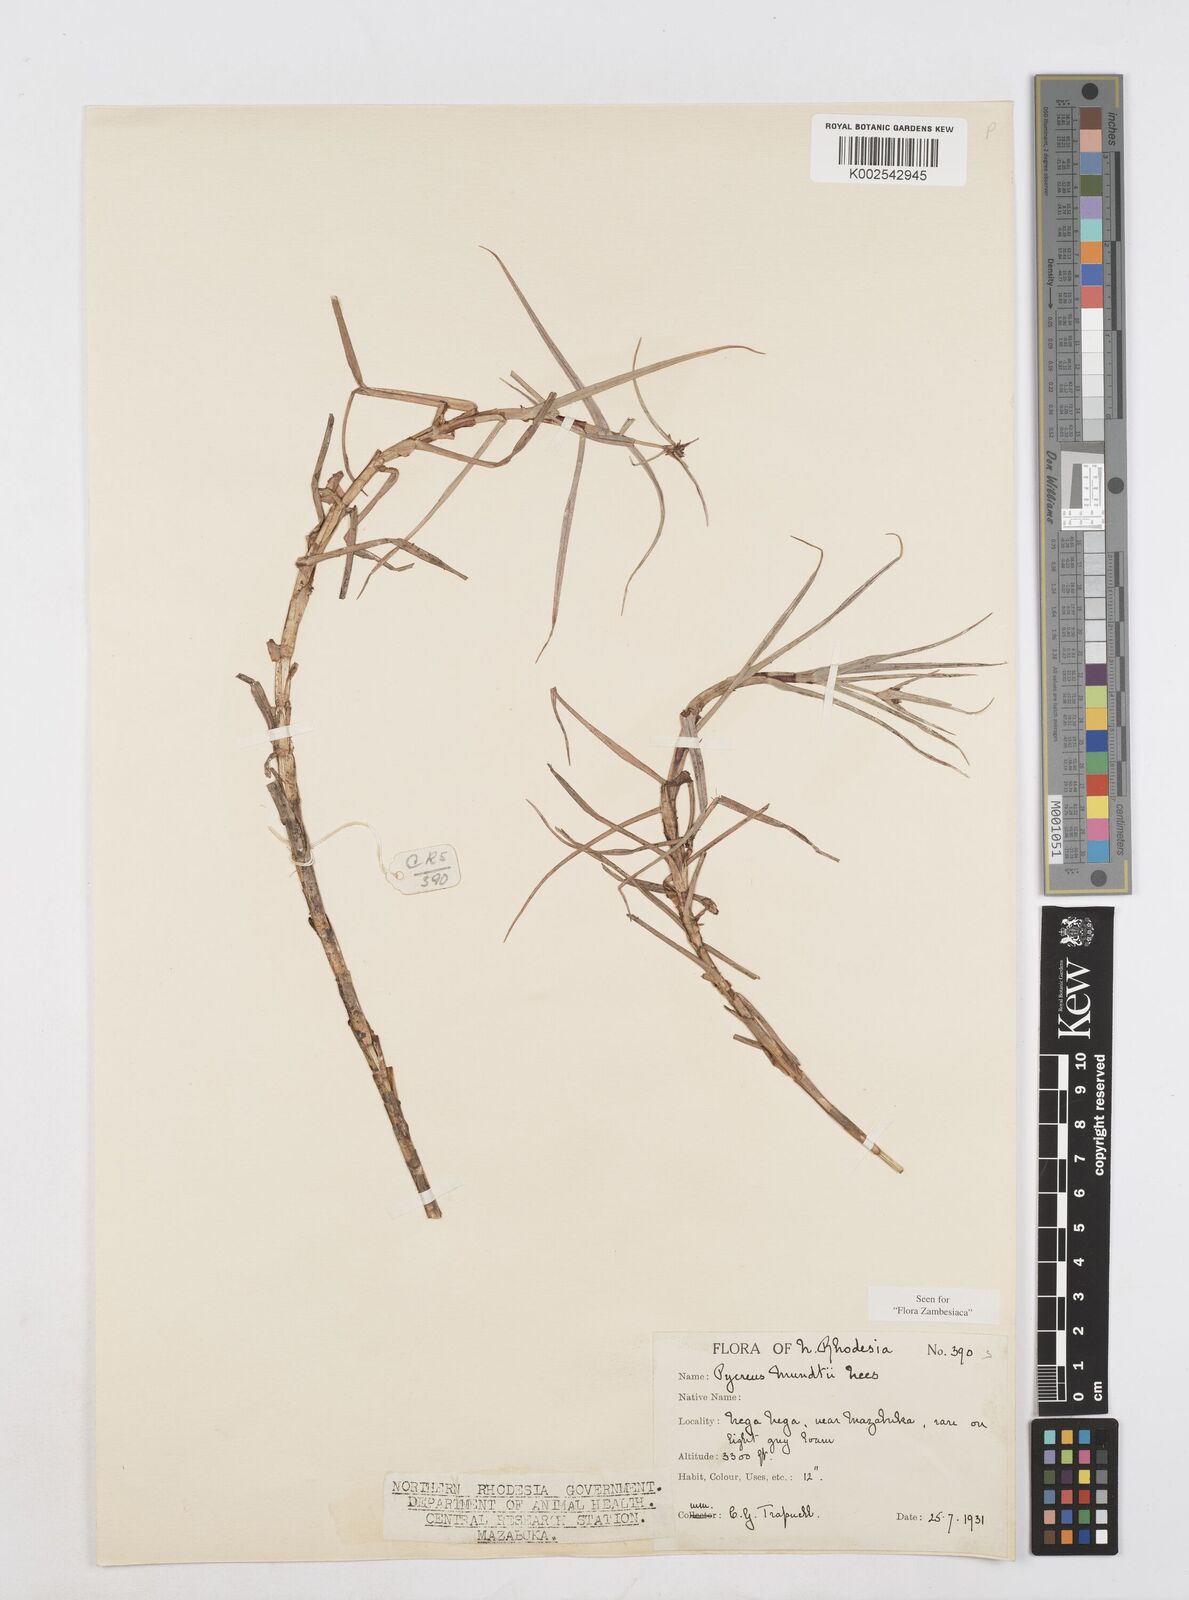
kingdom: Plantae
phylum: Tracheophyta
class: Liliopsida
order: Poales
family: Cyperaceae
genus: Cyperus
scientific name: Cyperus mundii
